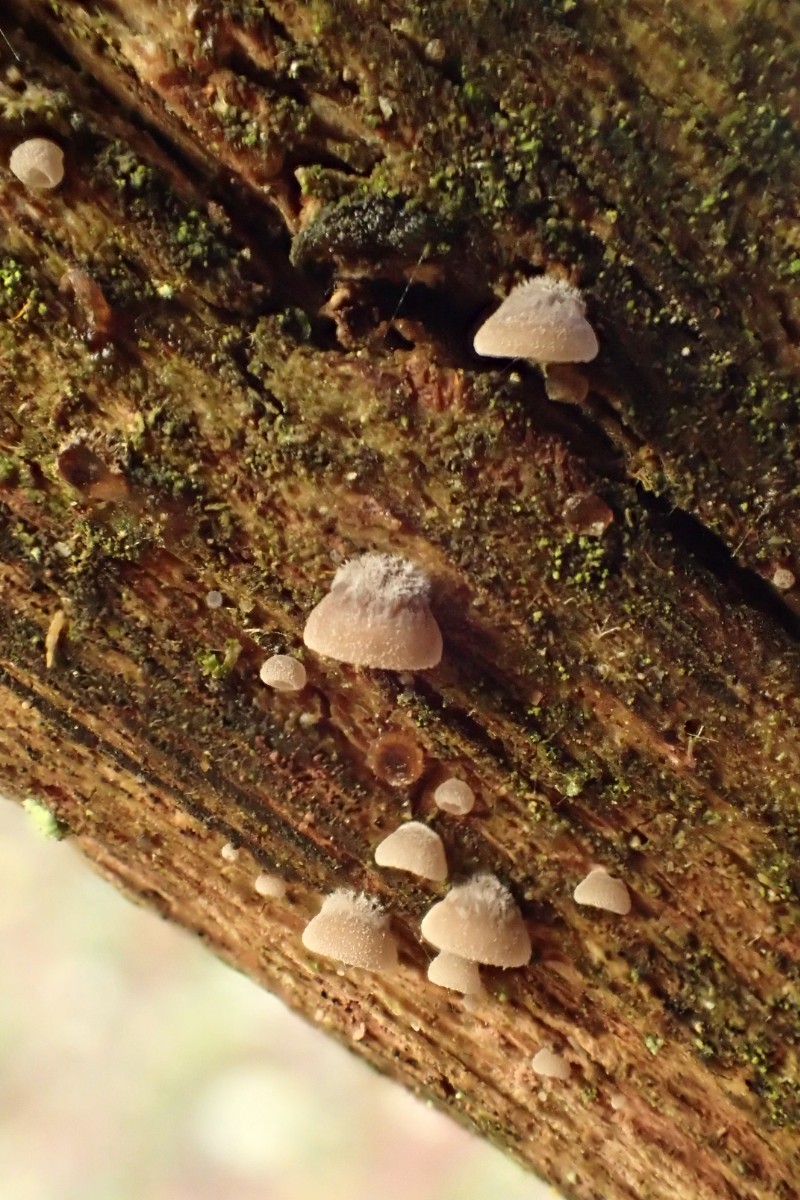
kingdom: Fungi
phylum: Basidiomycota
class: Agaricomycetes
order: Agaricales
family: Pleurotaceae
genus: Resupinatus
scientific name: Resupinatus applicatus
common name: lysfiltet barkhat
